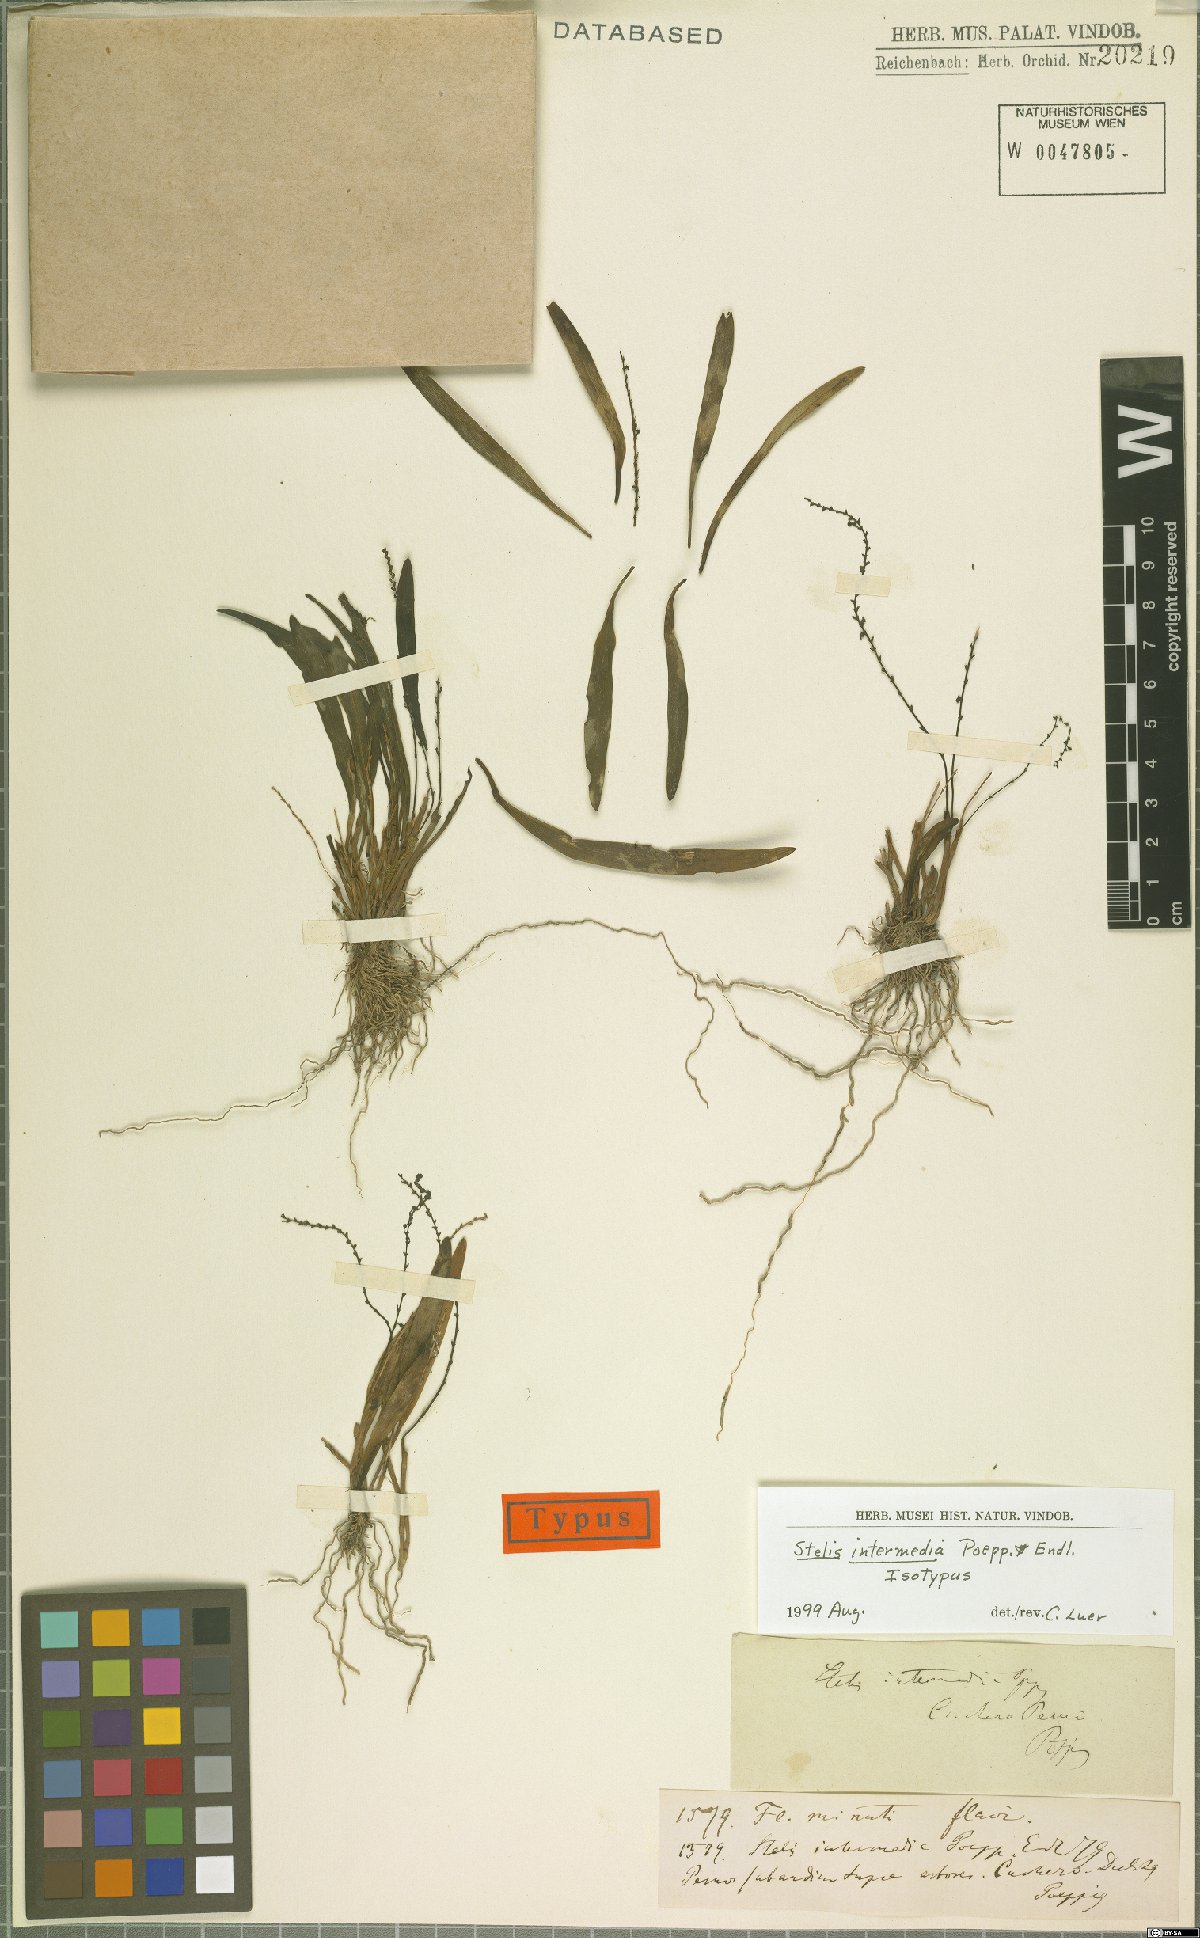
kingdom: Plantae
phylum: Tracheophyta
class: Liliopsida
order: Asparagales
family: Orchidaceae
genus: Stelis
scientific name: Stelis intermedia
